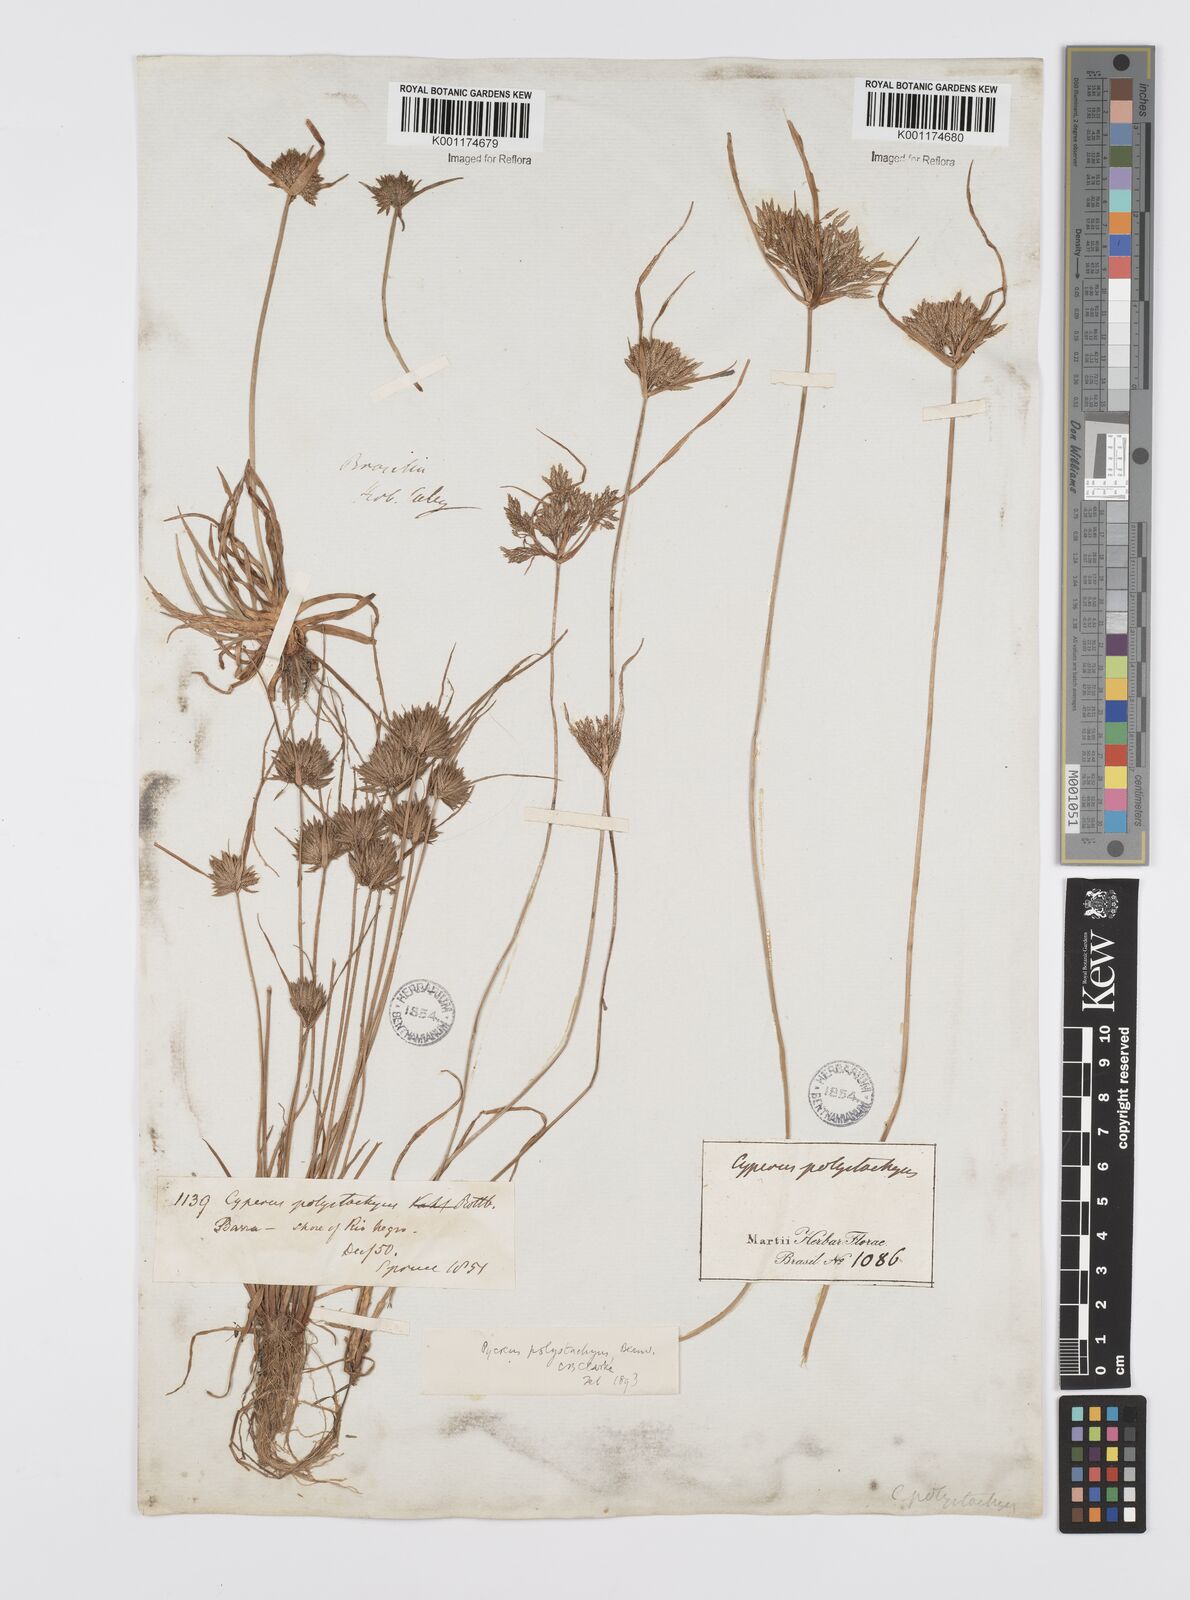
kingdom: Plantae
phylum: Tracheophyta
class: Liliopsida
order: Poales
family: Cyperaceae
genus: Cyperus
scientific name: Cyperus polystachyos
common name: Bunchy flat sedge
